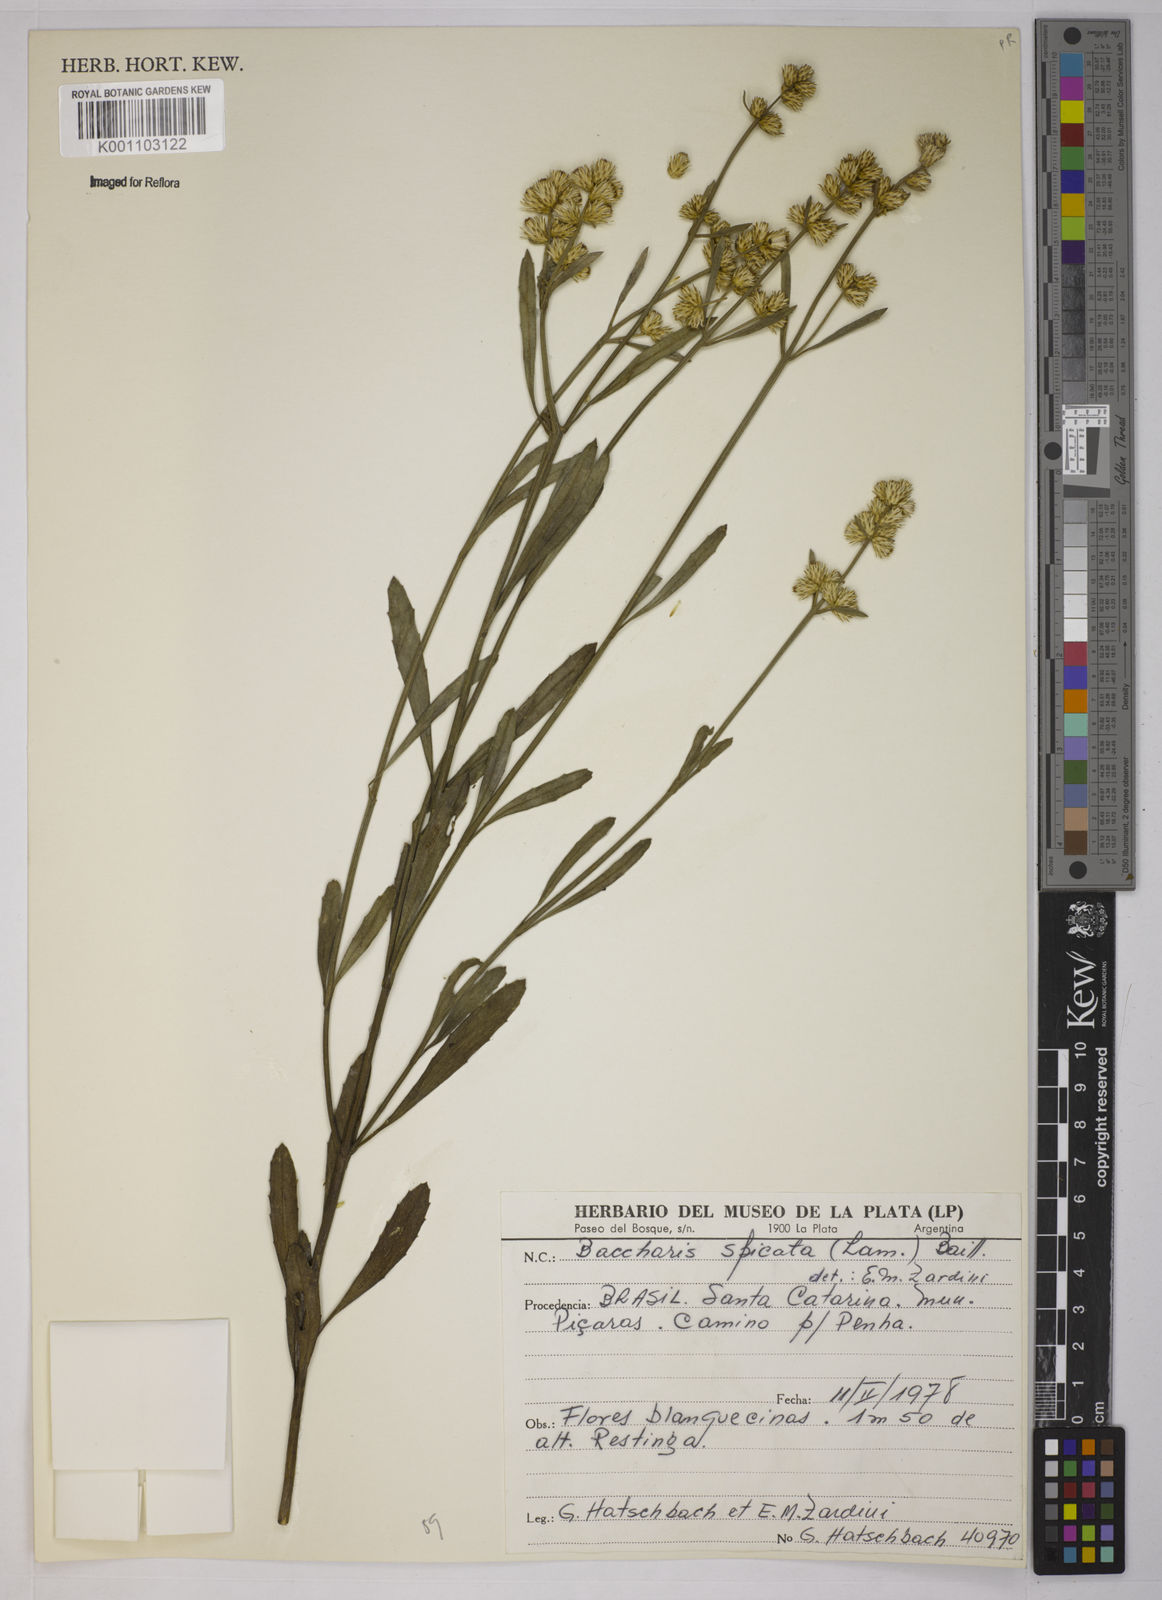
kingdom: Plantae
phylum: Tracheophyta
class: Magnoliopsida
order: Asterales
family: Asteraceae
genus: Baccharis
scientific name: Baccharis hieronymi
